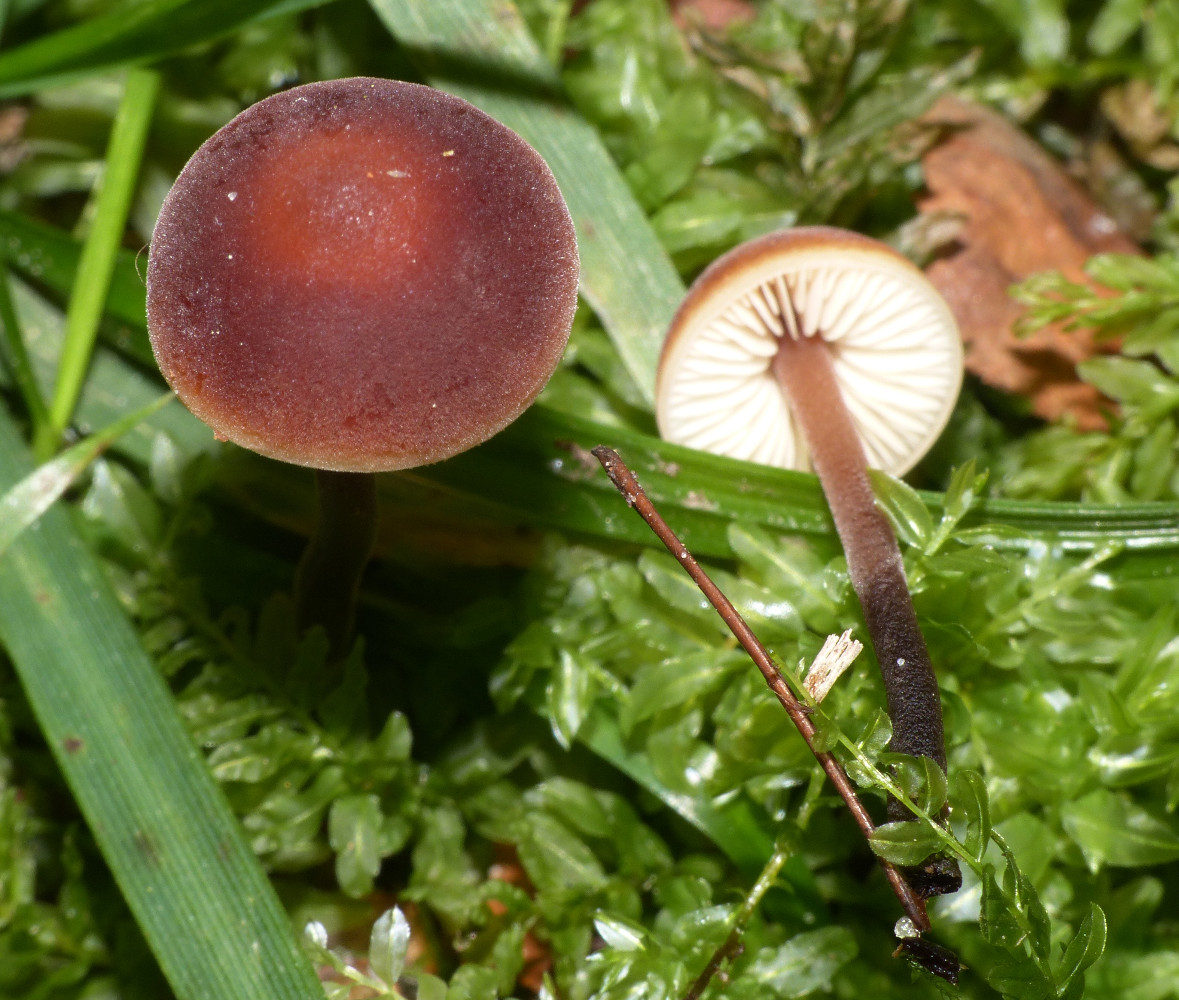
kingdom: Fungi
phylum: Basidiomycota
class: Agaricomycetes
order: Agaricales
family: Macrocystidiaceae
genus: Macrocystidia
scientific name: Macrocystidia cucumis
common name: agurkehat
